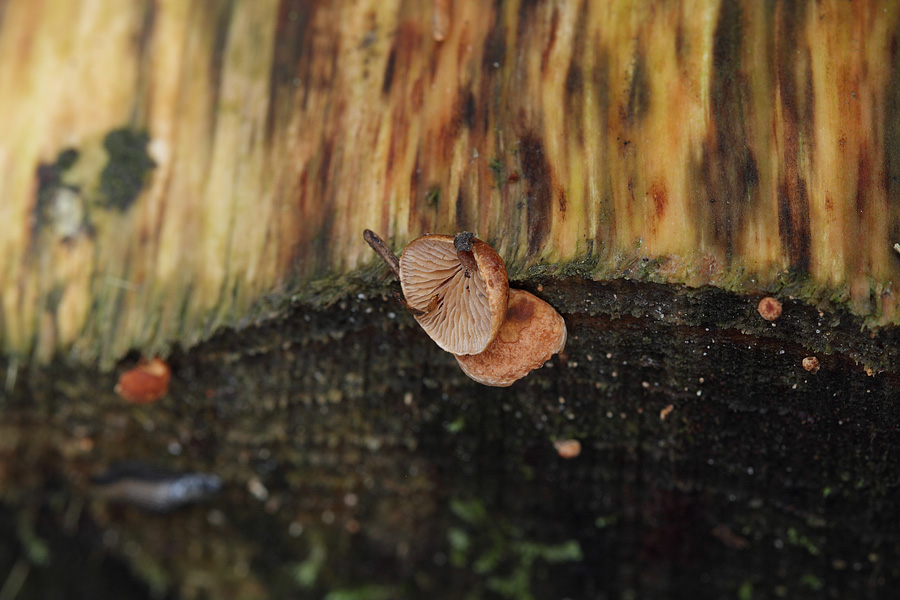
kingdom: Fungi
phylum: Basidiomycota
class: Agaricomycetes
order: Agaricales
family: Strophariaceae
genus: Deconica
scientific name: Deconica horizontalis
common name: ved-stråhat
